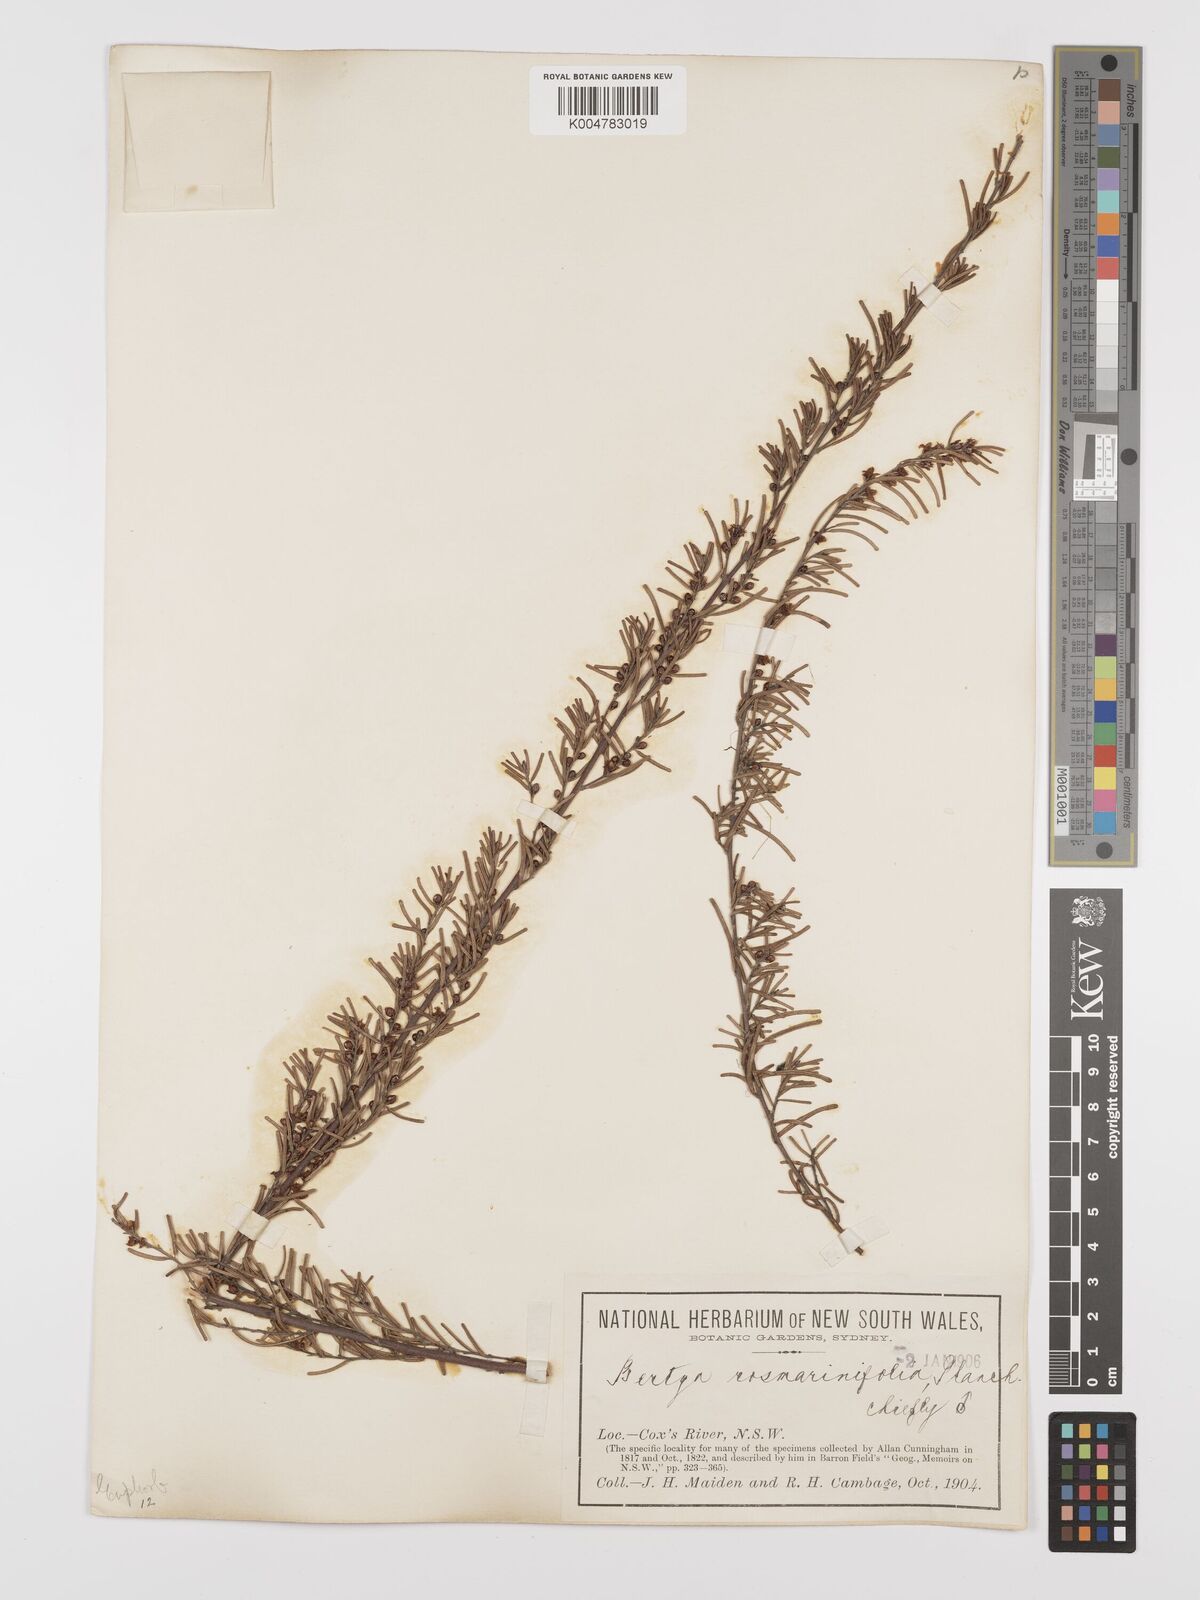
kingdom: Plantae
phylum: Tracheophyta
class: Magnoliopsida
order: Malpighiales
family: Euphorbiaceae
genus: Bertya
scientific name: Bertya rosmarinifolia
